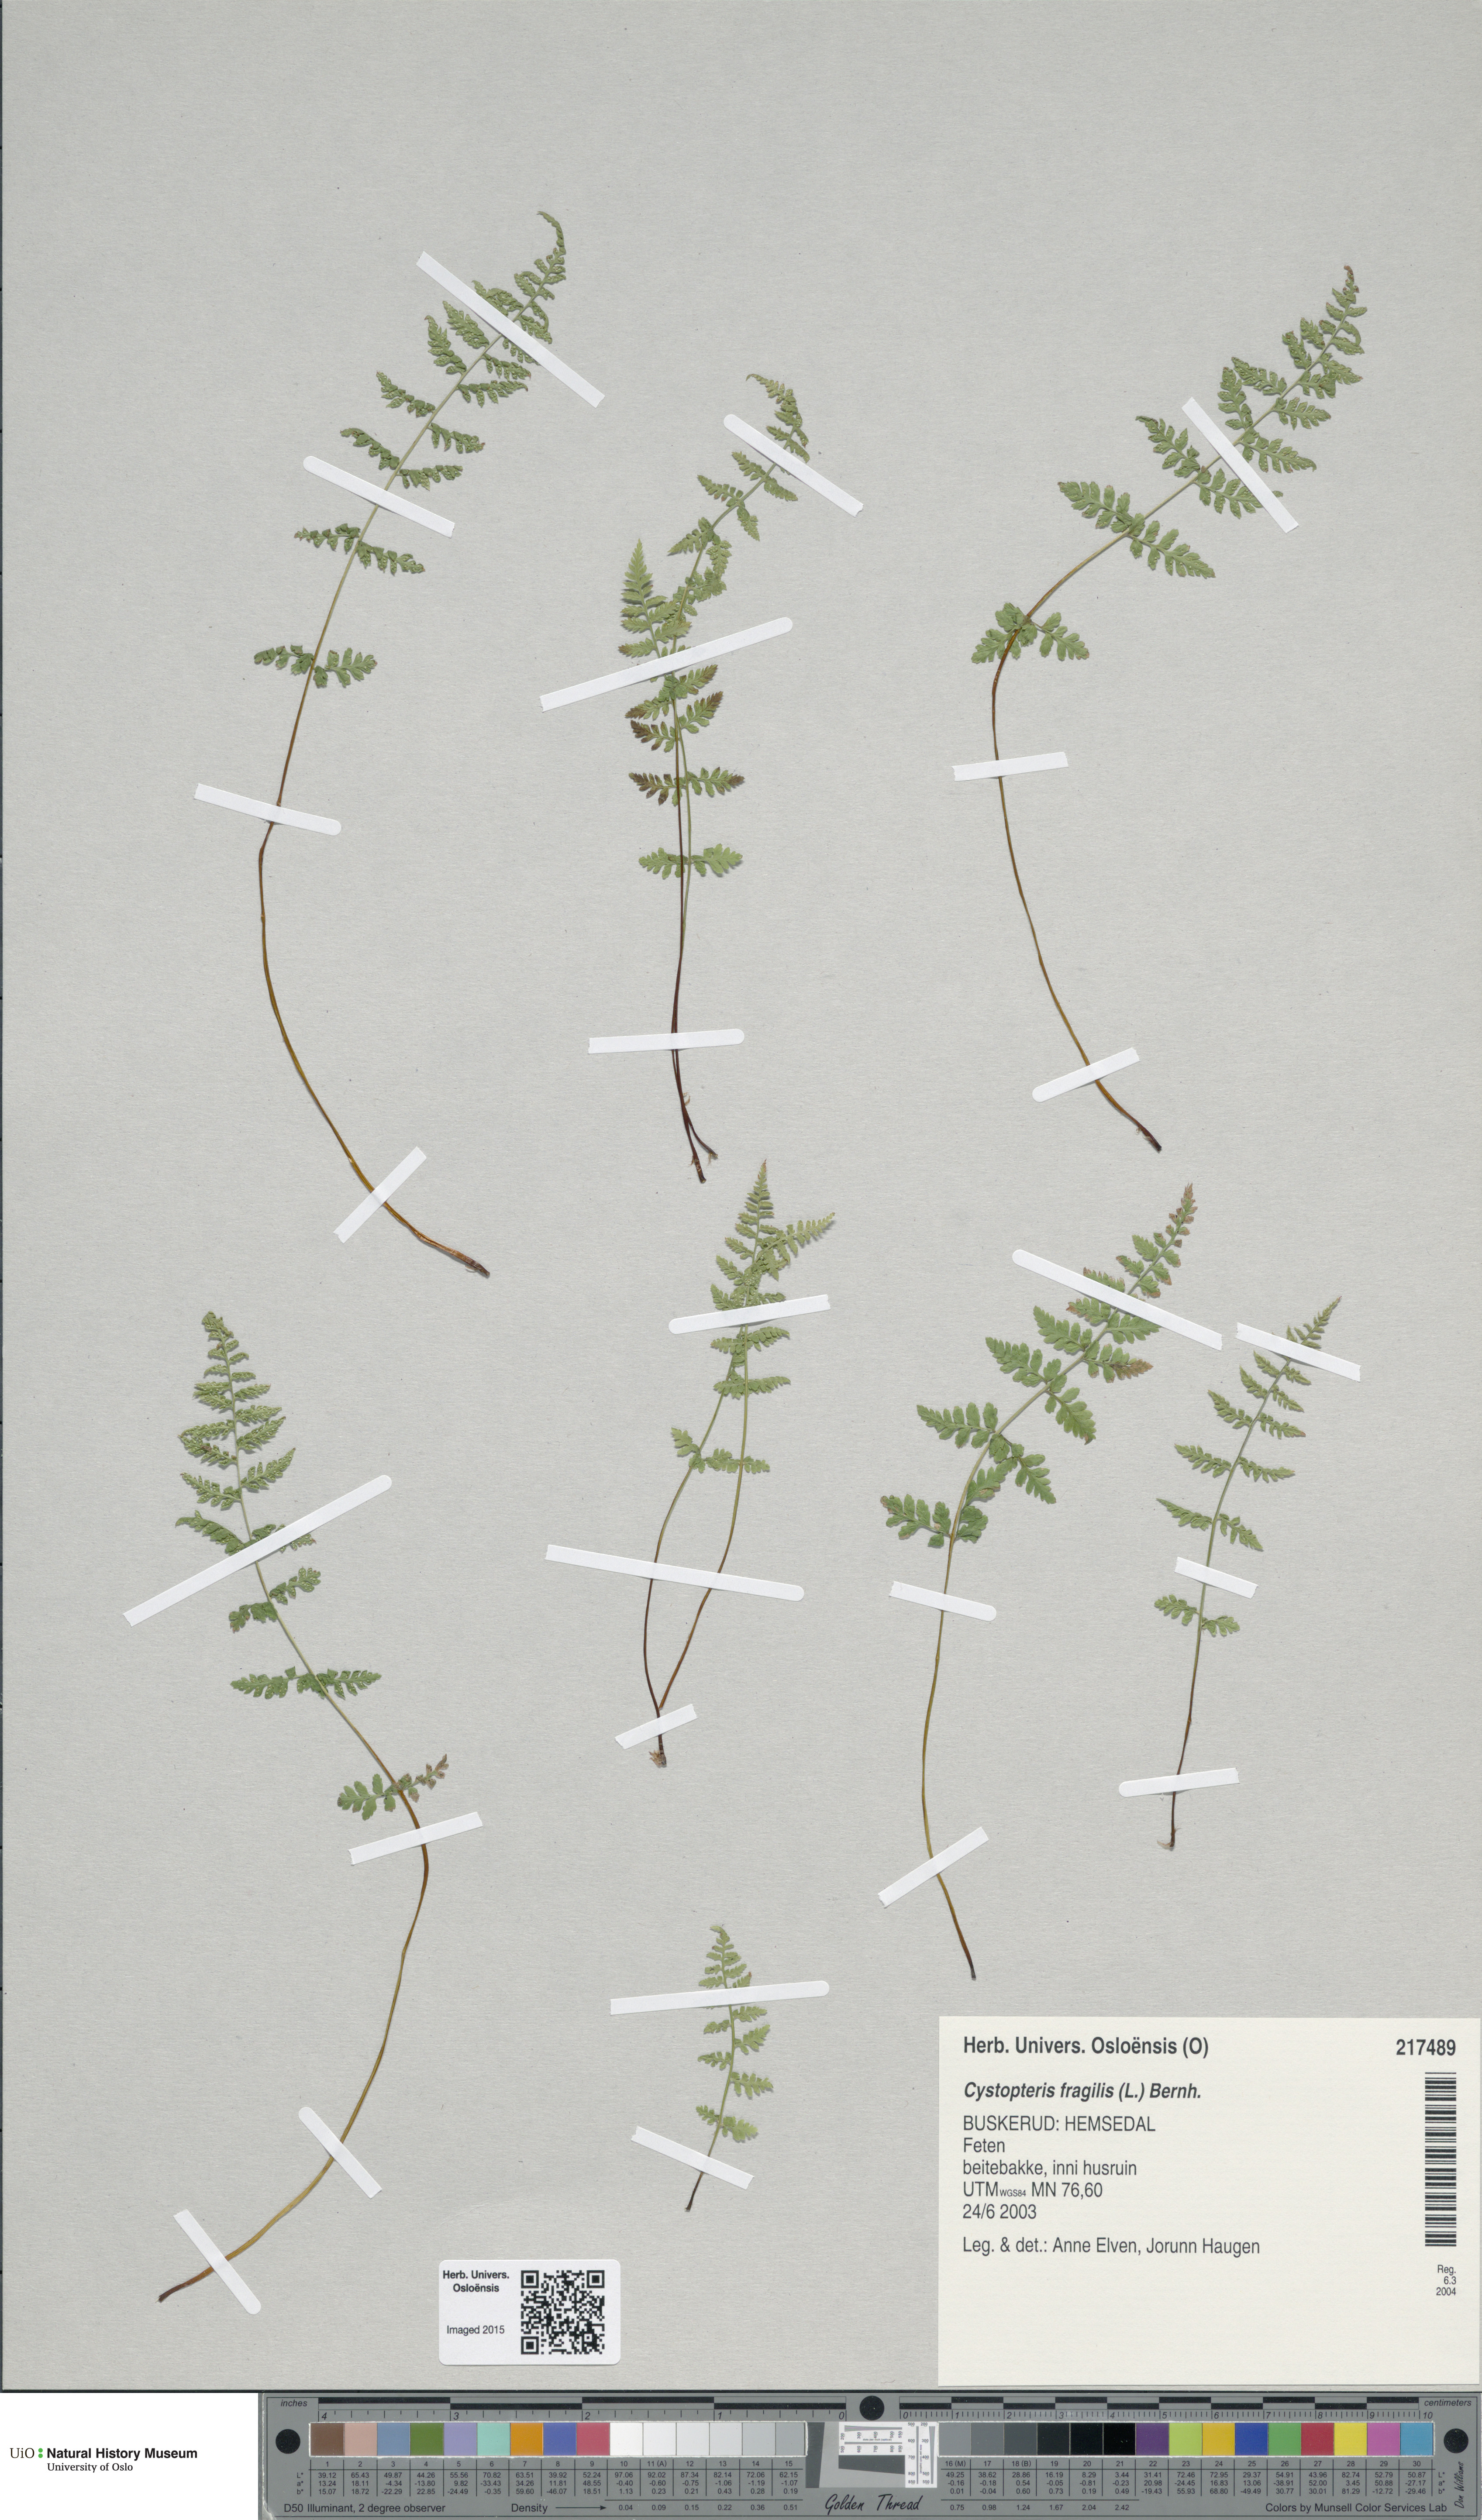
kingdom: Plantae
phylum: Tracheophyta
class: Polypodiopsida
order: Polypodiales
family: Cystopteridaceae
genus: Cystopteris
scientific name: Cystopteris fragilis
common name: Brittle bladder fern
